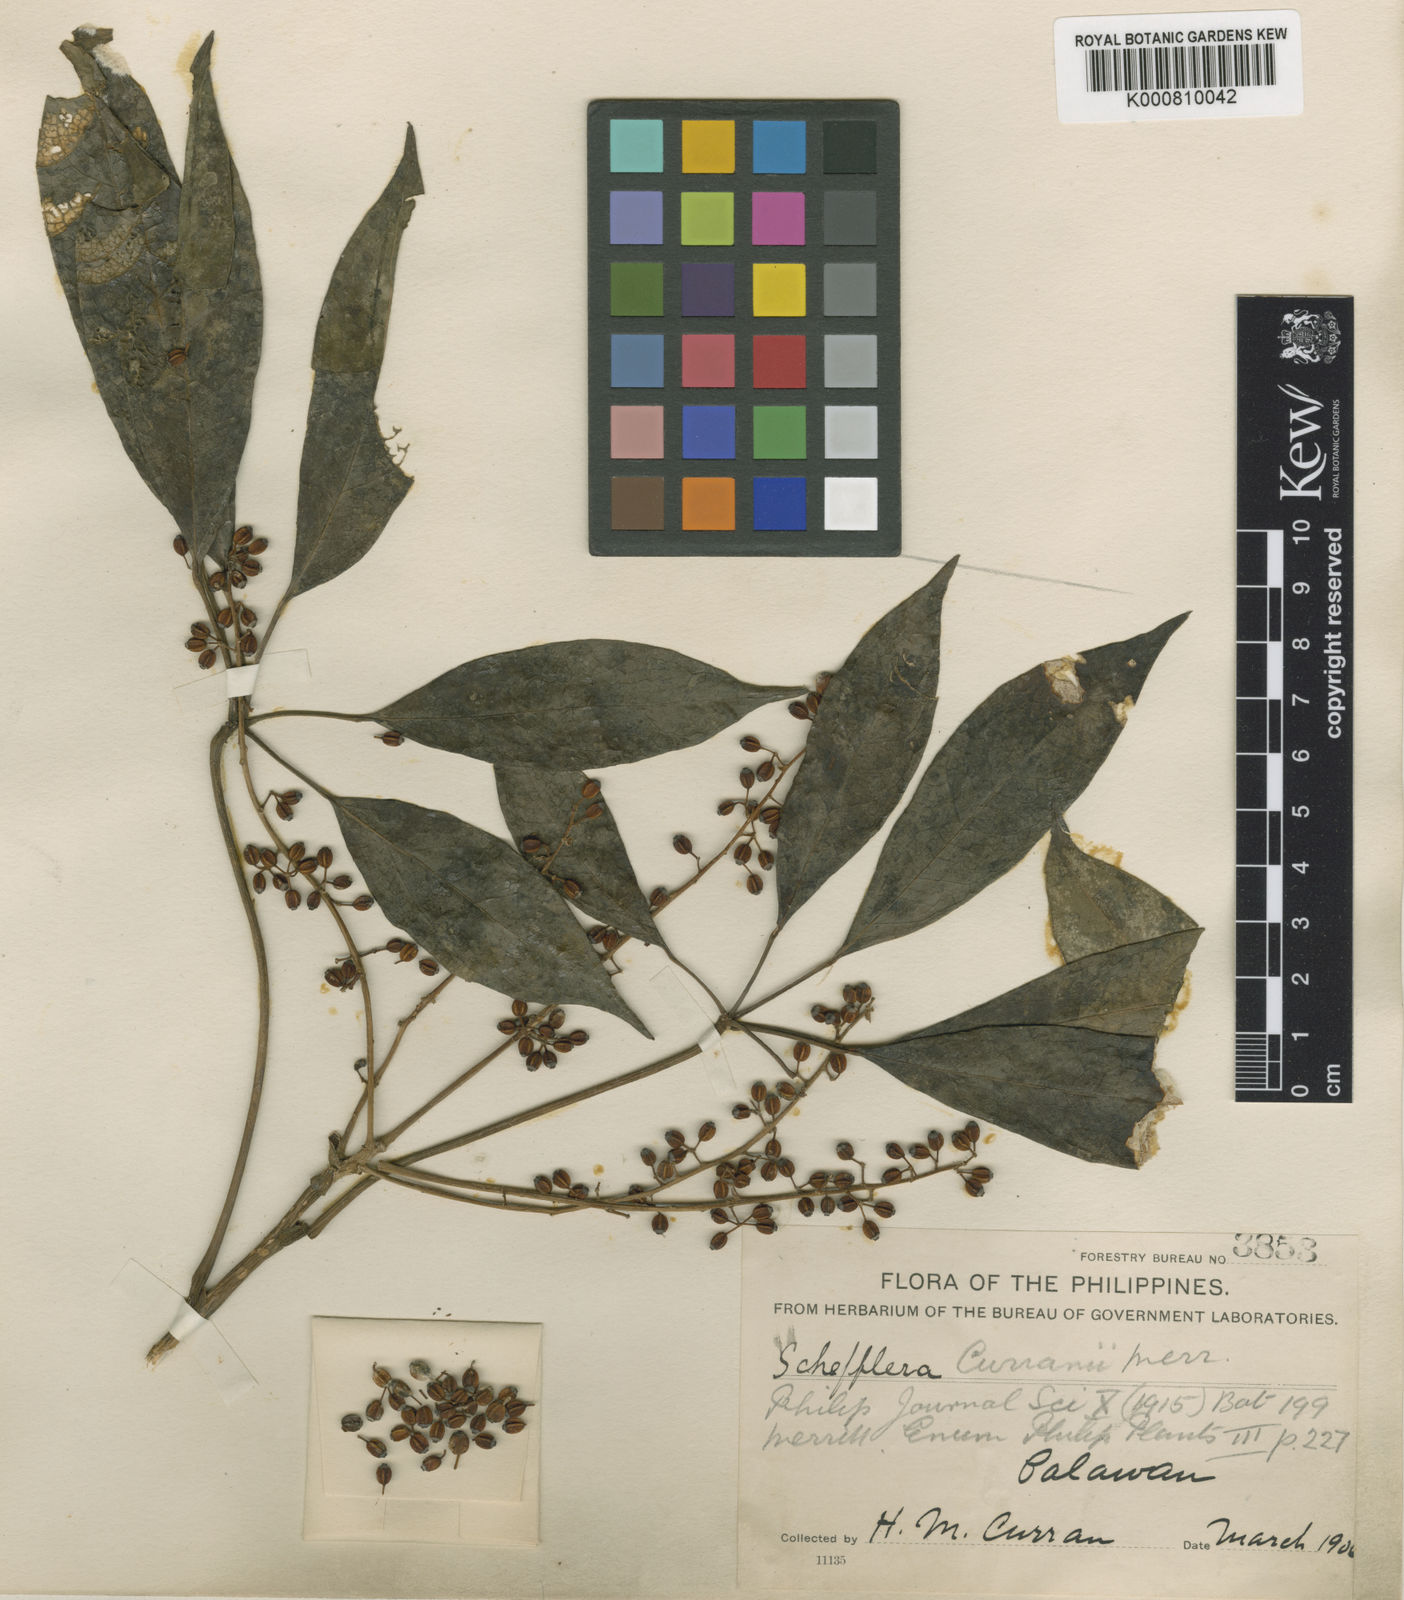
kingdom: Plantae
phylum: Tracheophyta
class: Magnoliopsida
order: Apiales
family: Araliaceae
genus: Heptapleurum
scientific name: Heptapleurum curranii
